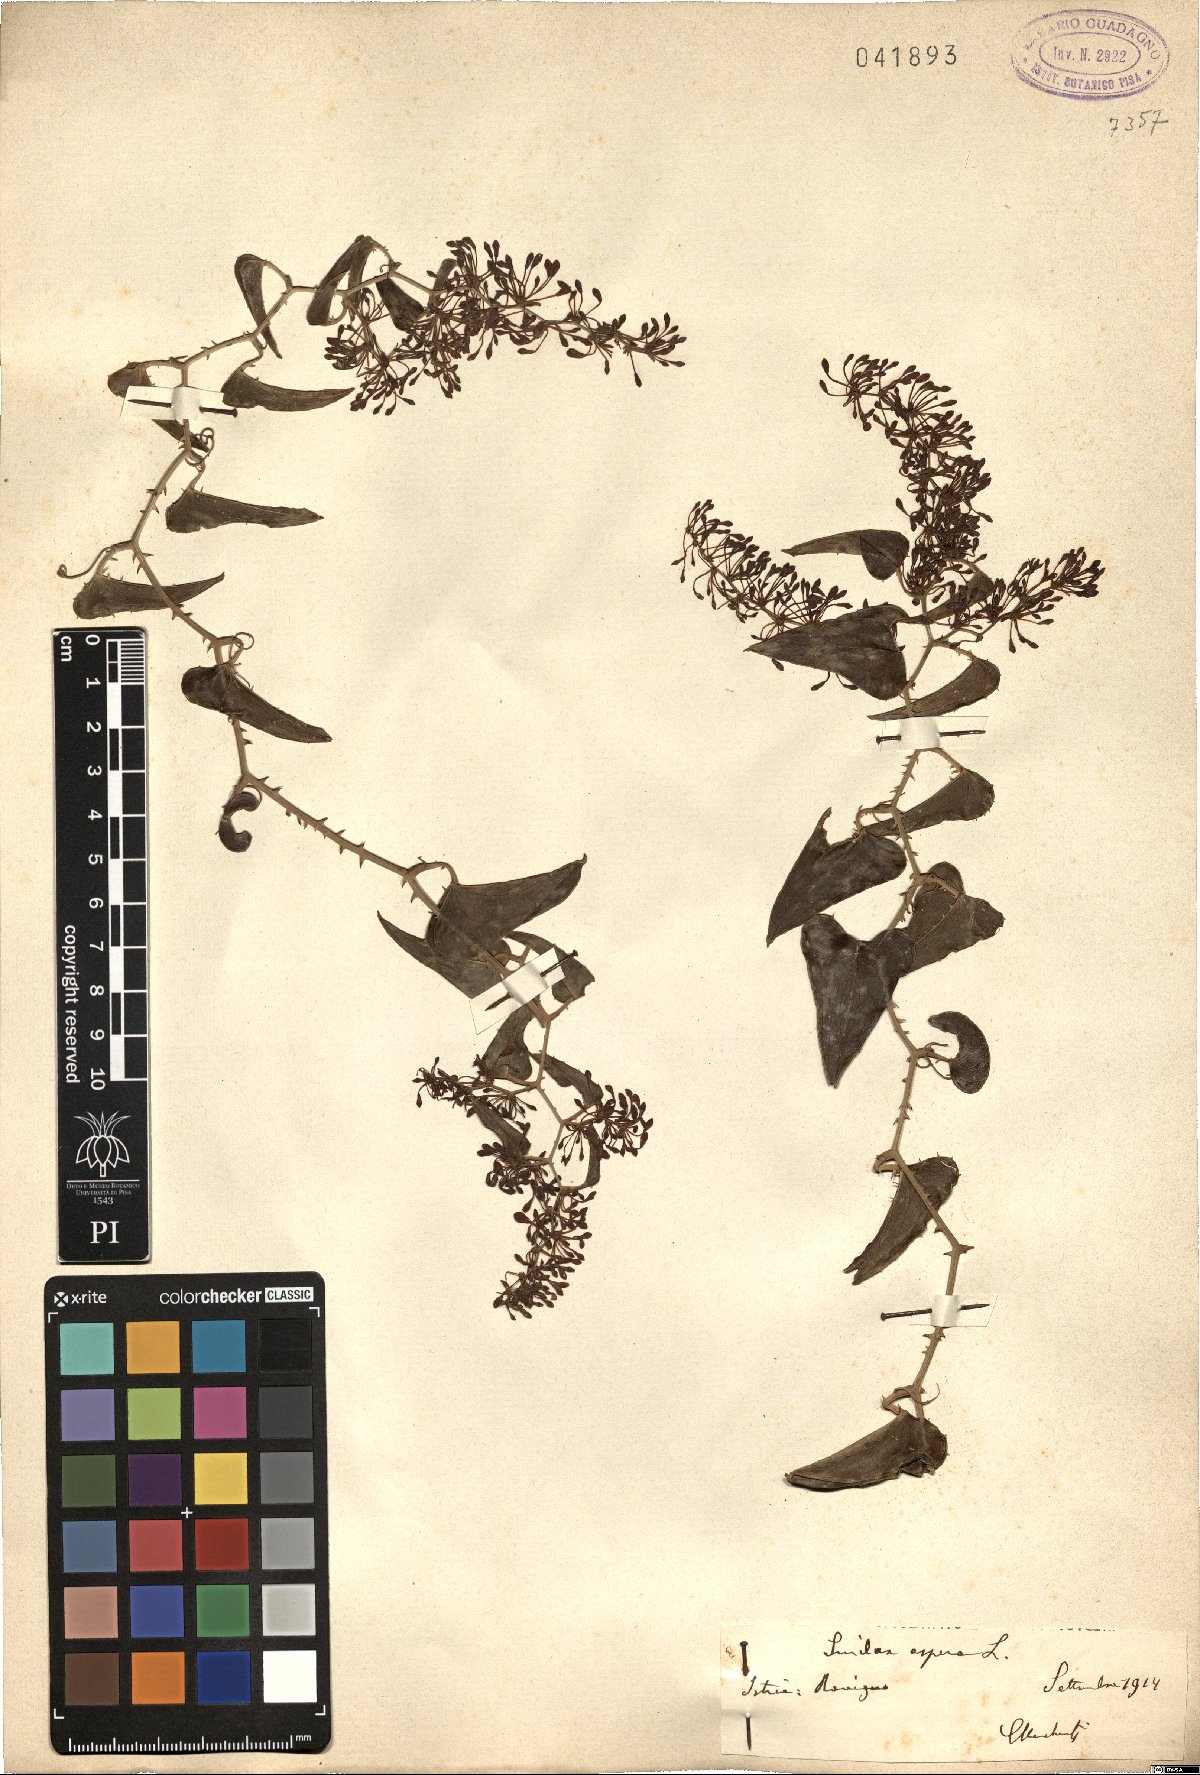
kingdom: Plantae
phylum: Tracheophyta
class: Liliopsida
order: Liliales
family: Smilacaceae
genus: Smilax
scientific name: Smilax aspera
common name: Common smilax
